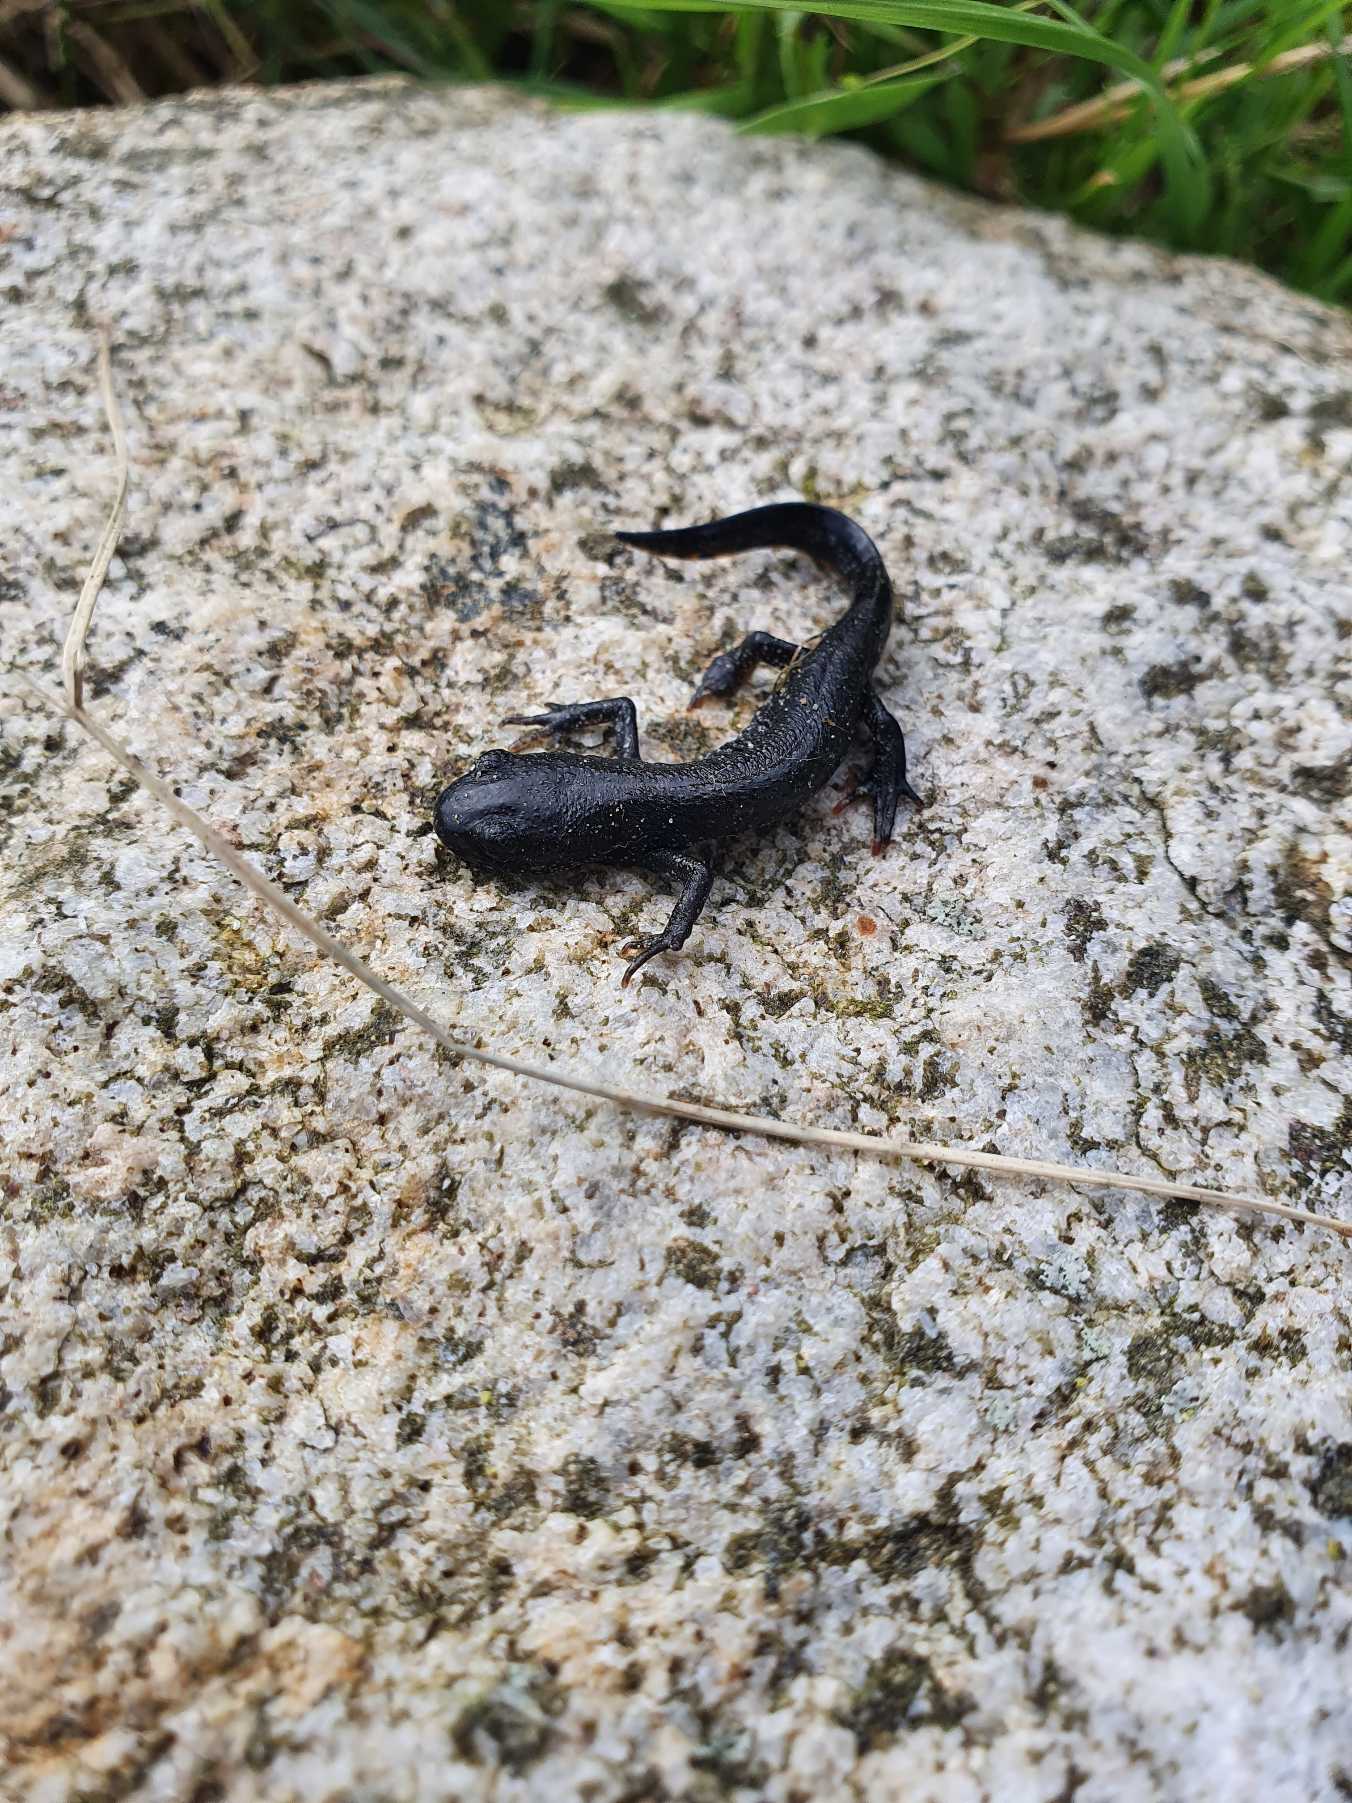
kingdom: Animalia
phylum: Chordata
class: Amphibia
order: Caudata
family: Salamandridae
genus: Triturus
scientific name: Triturus cristatus
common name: Stor vandsalamander
